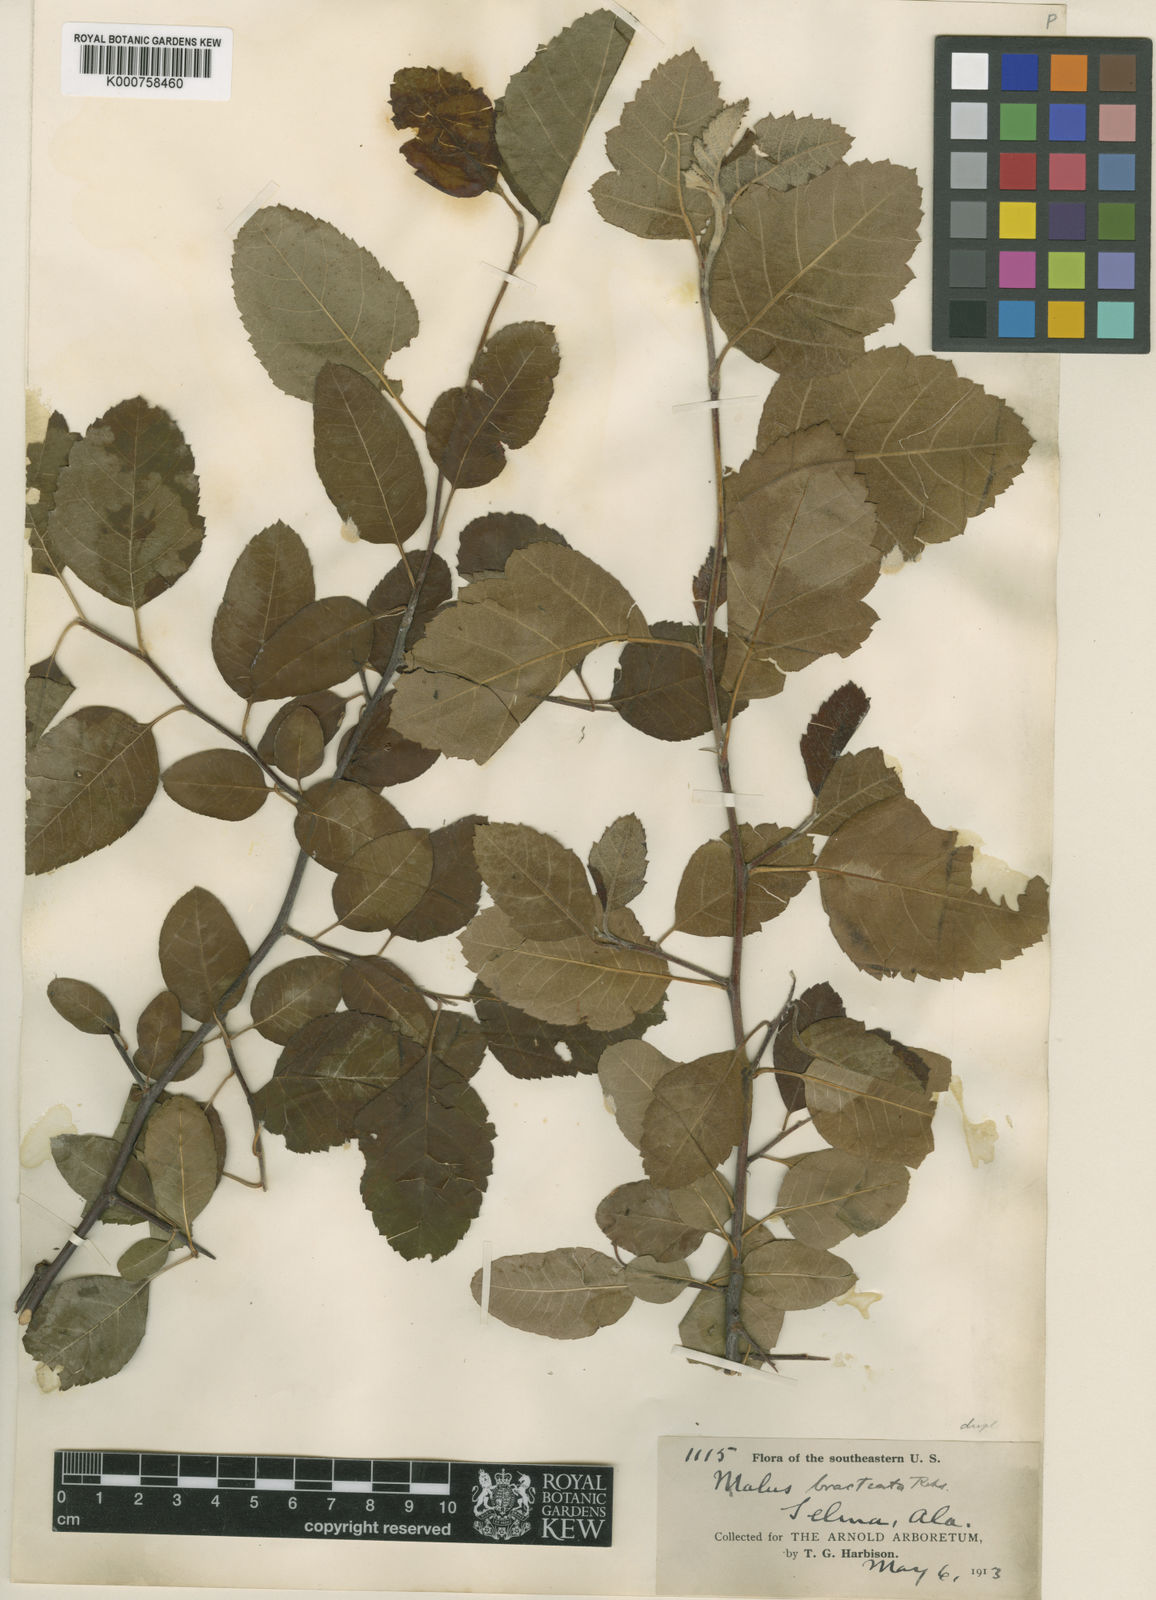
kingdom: Plantae
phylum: Tracheophyta
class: Magnoliopsida
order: Rosales
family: Rosaceae
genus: Malus
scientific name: Malus coronaria
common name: Sweet crab apple
